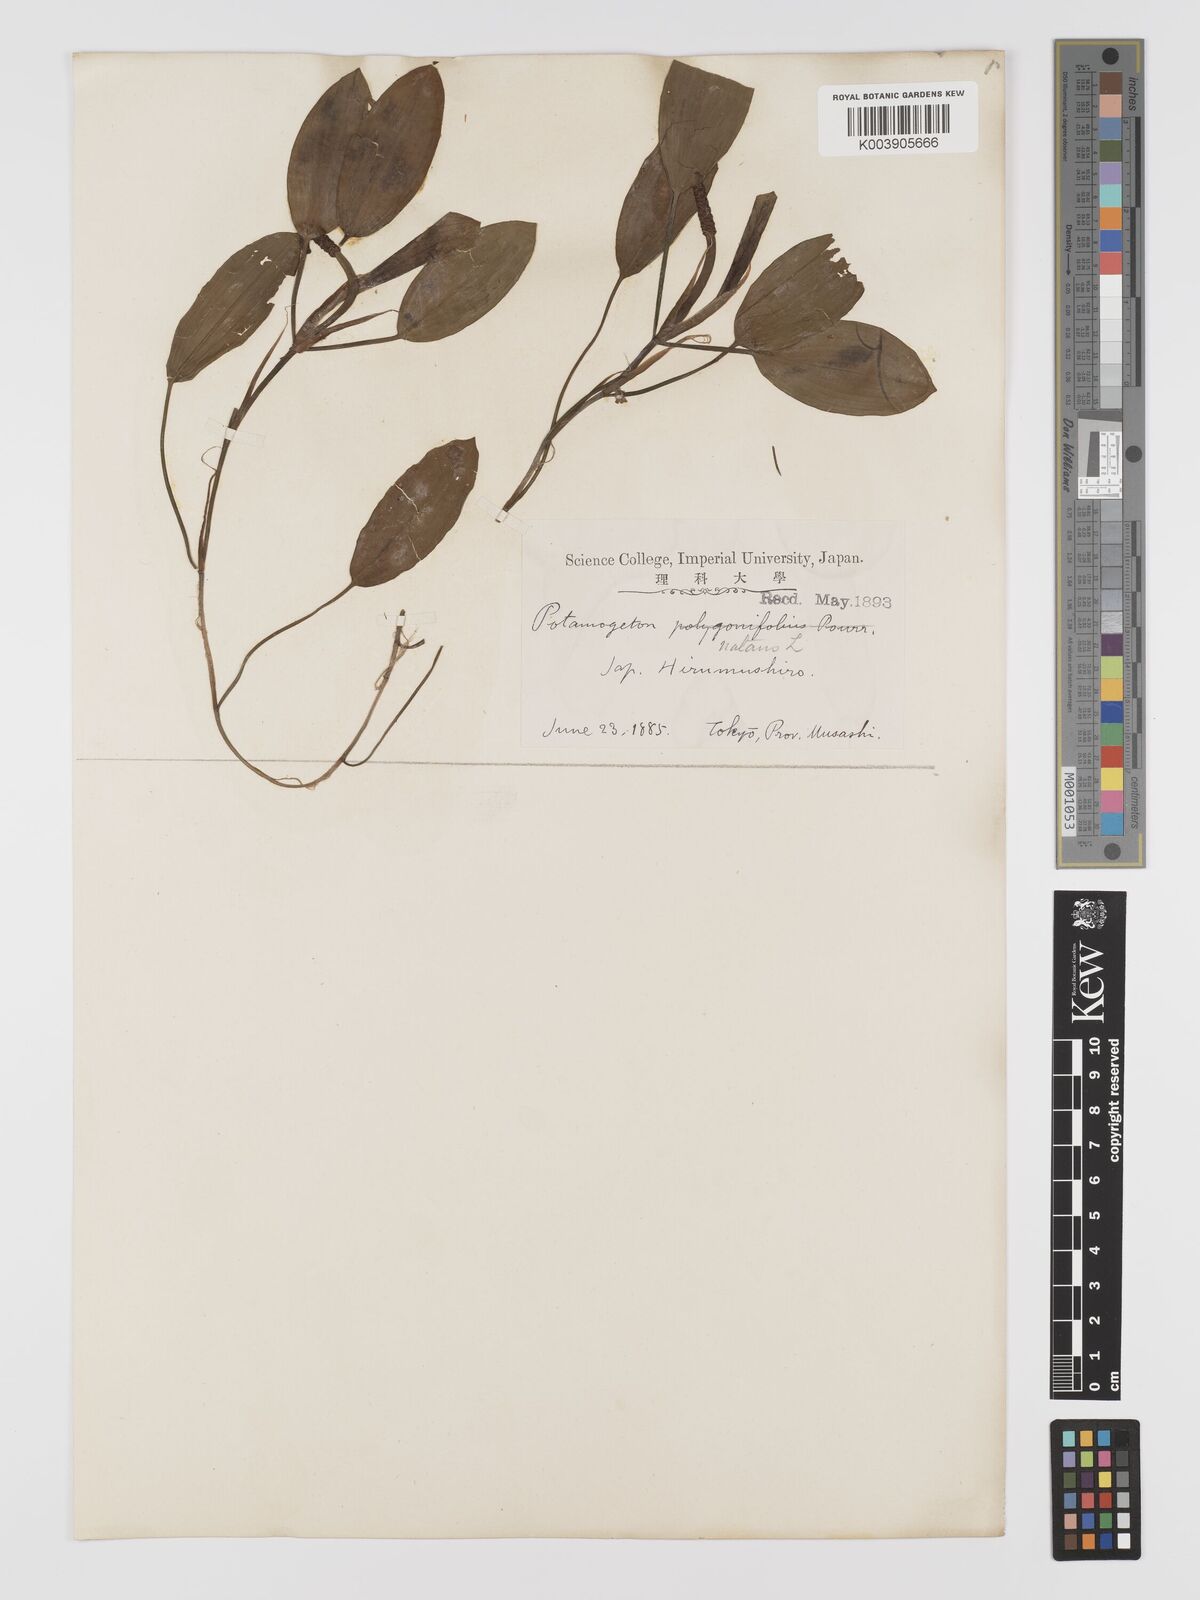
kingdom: Plantae
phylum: Tracheophyta
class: Liliopsida
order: Alismatales
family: Potamogetonaceae
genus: Potamogeton
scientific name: Potamogeton natans
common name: Broad-leaved pondweed
